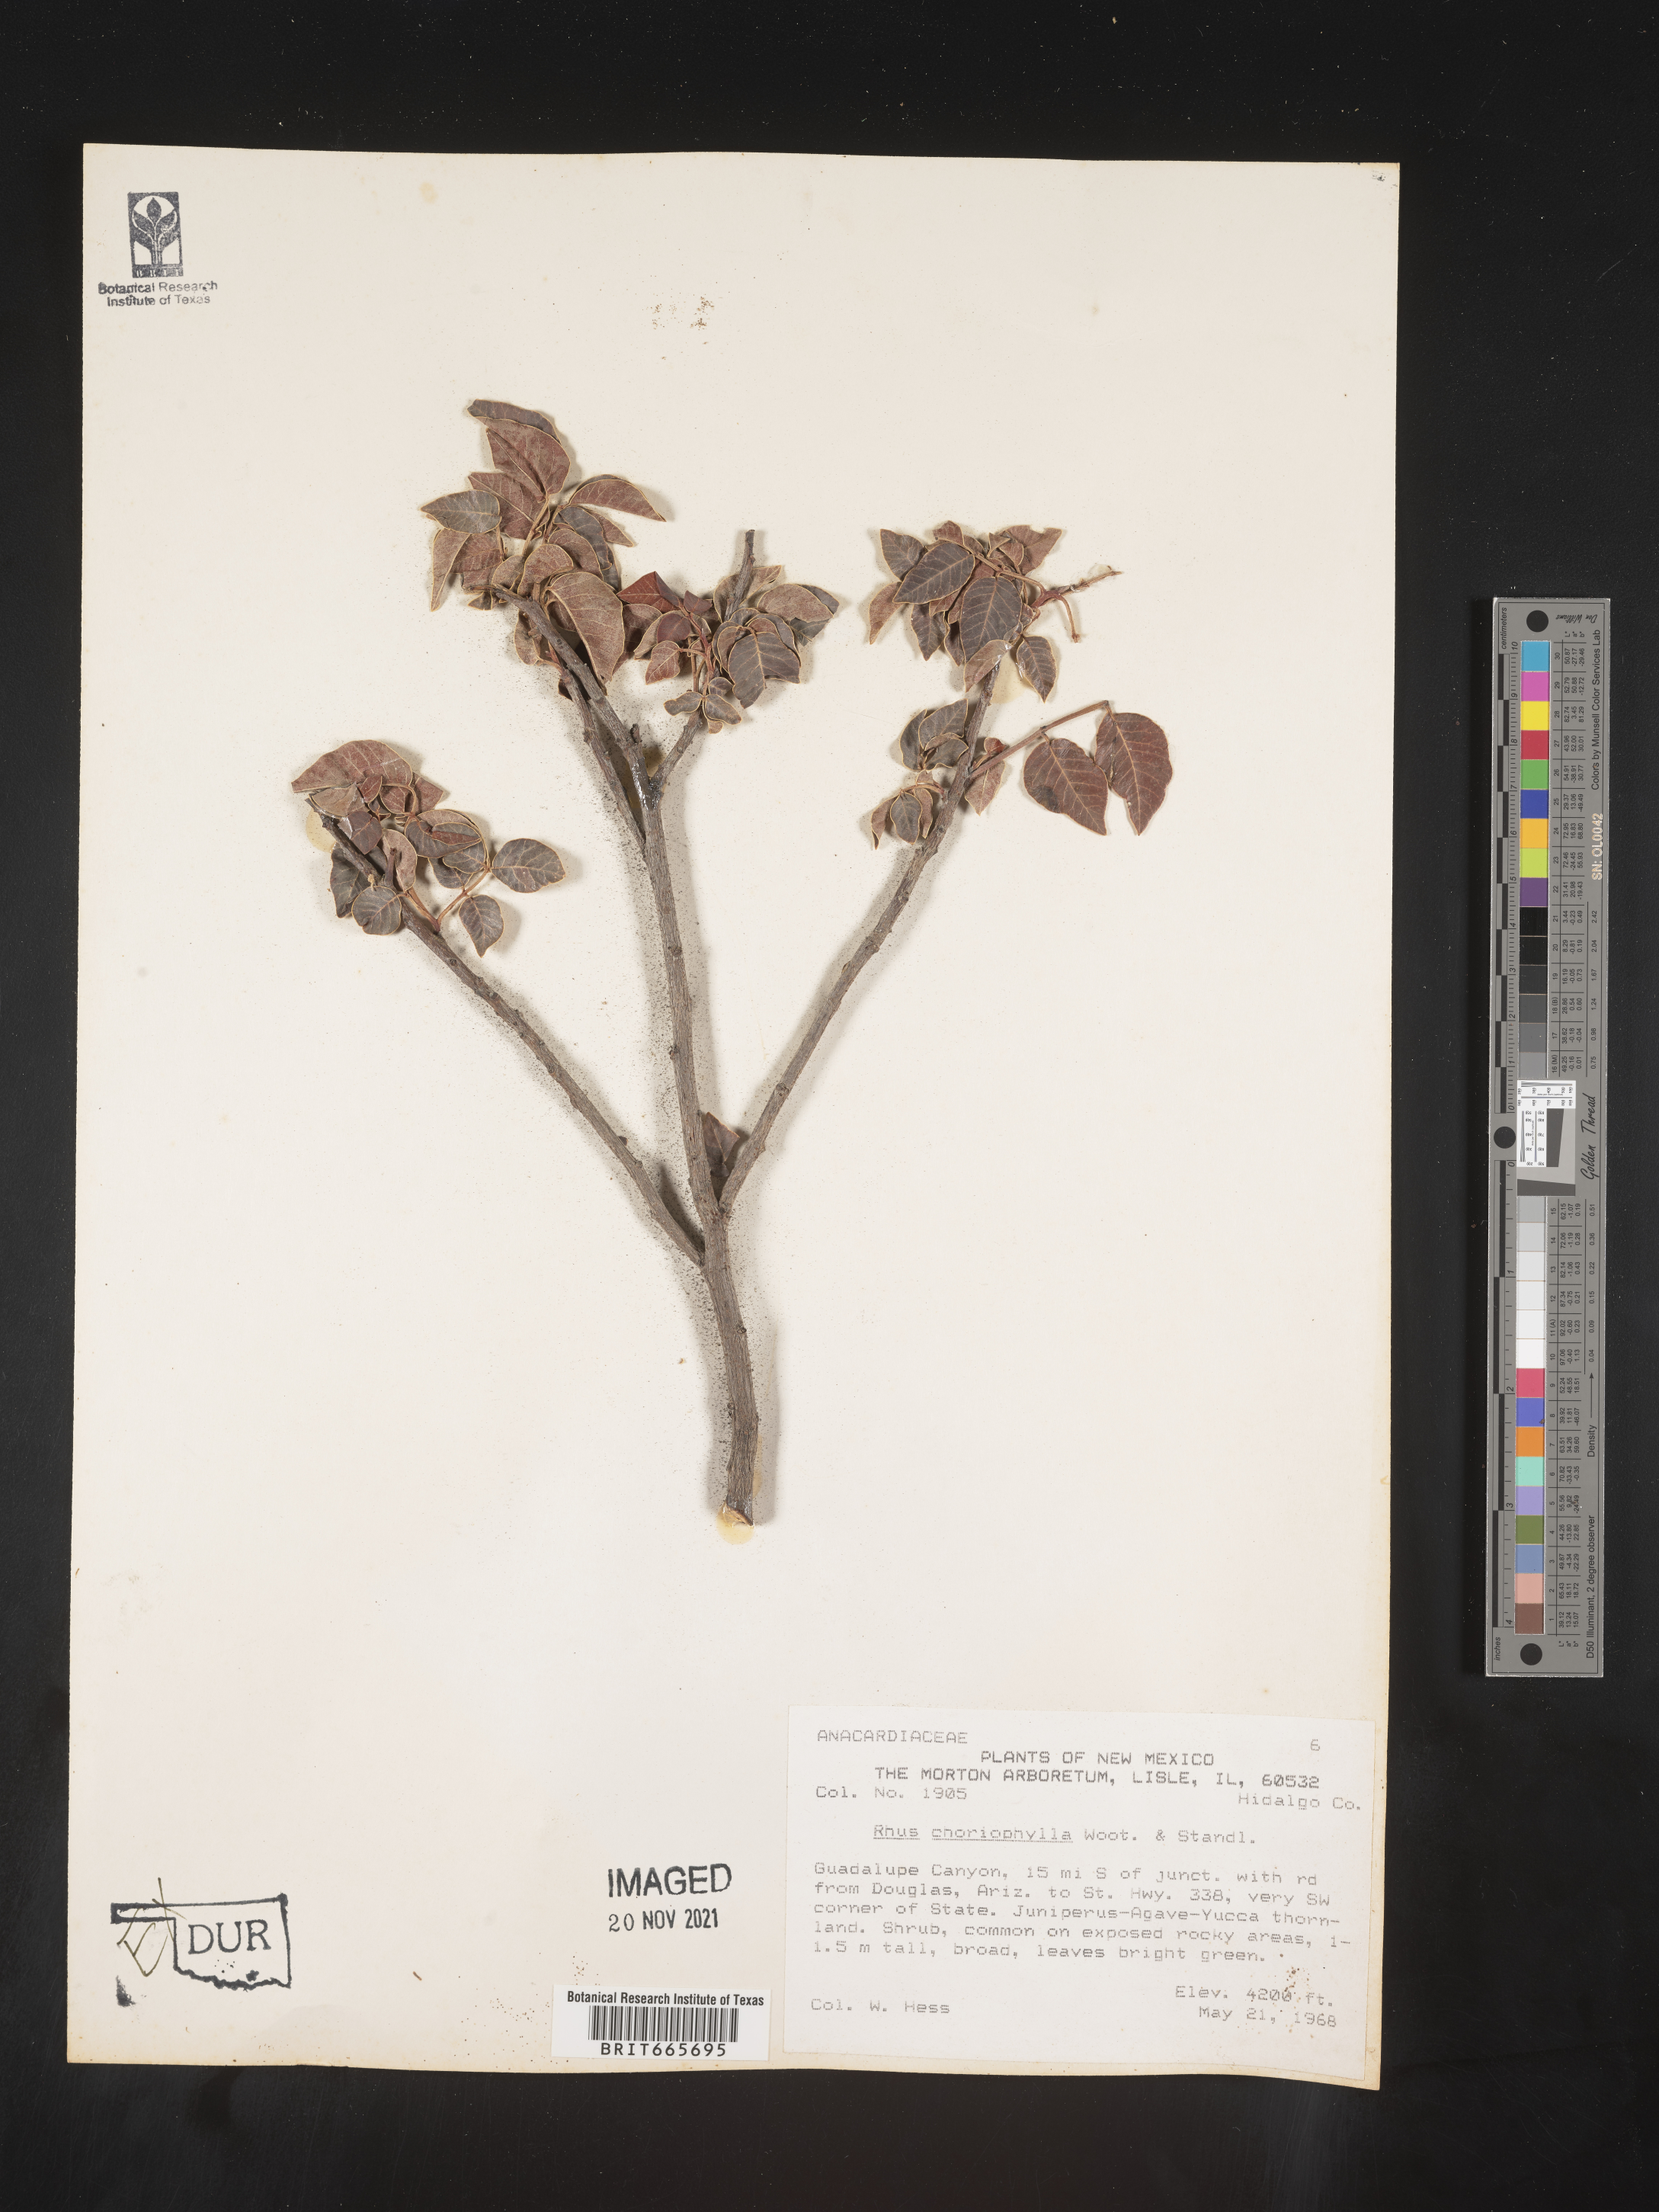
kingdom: Plantae
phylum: Tracheophyta
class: Magnoliopsida
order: Sapindales
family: Anacardiaceae
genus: Rhus
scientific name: Rhus
